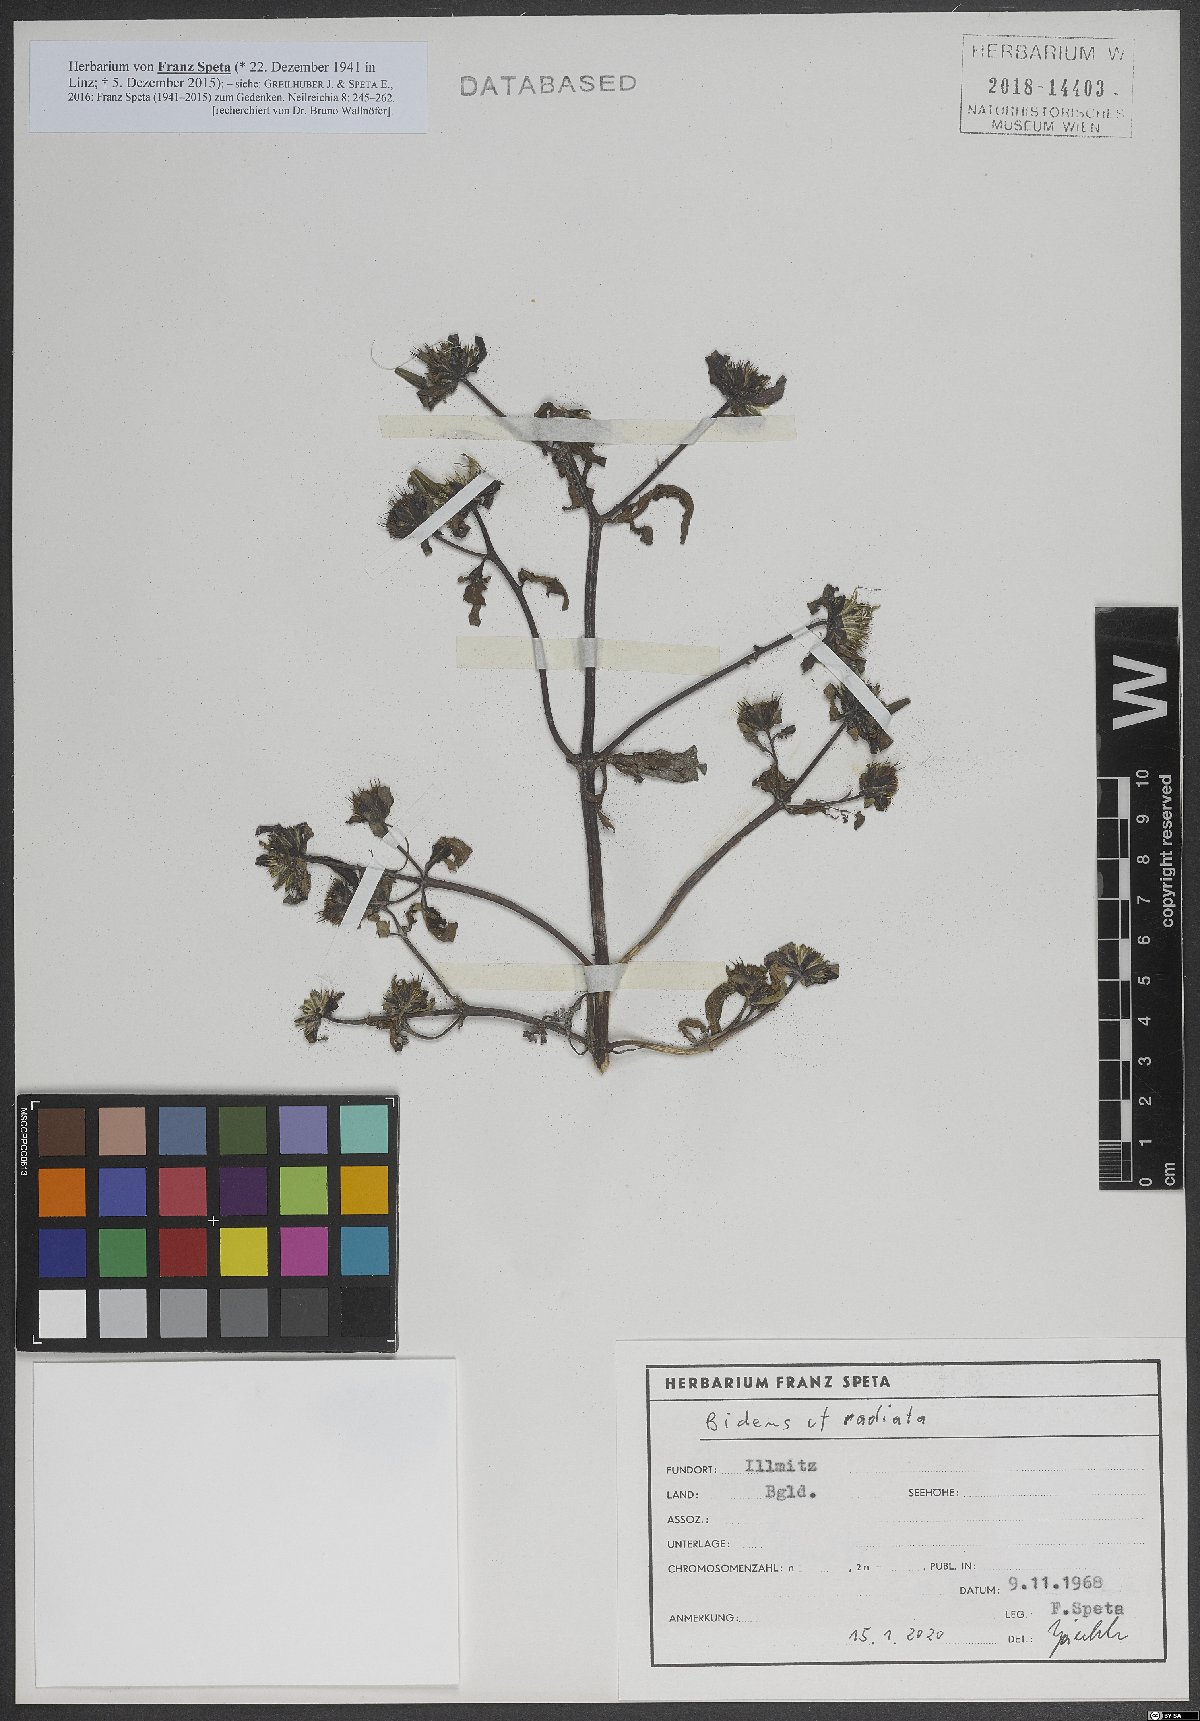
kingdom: Plantae
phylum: Tracheophyta
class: Magnoliopsida
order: Asterales
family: Asteraceae
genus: Bidens
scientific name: Bidens radiata
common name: Radiating bur-marigold
